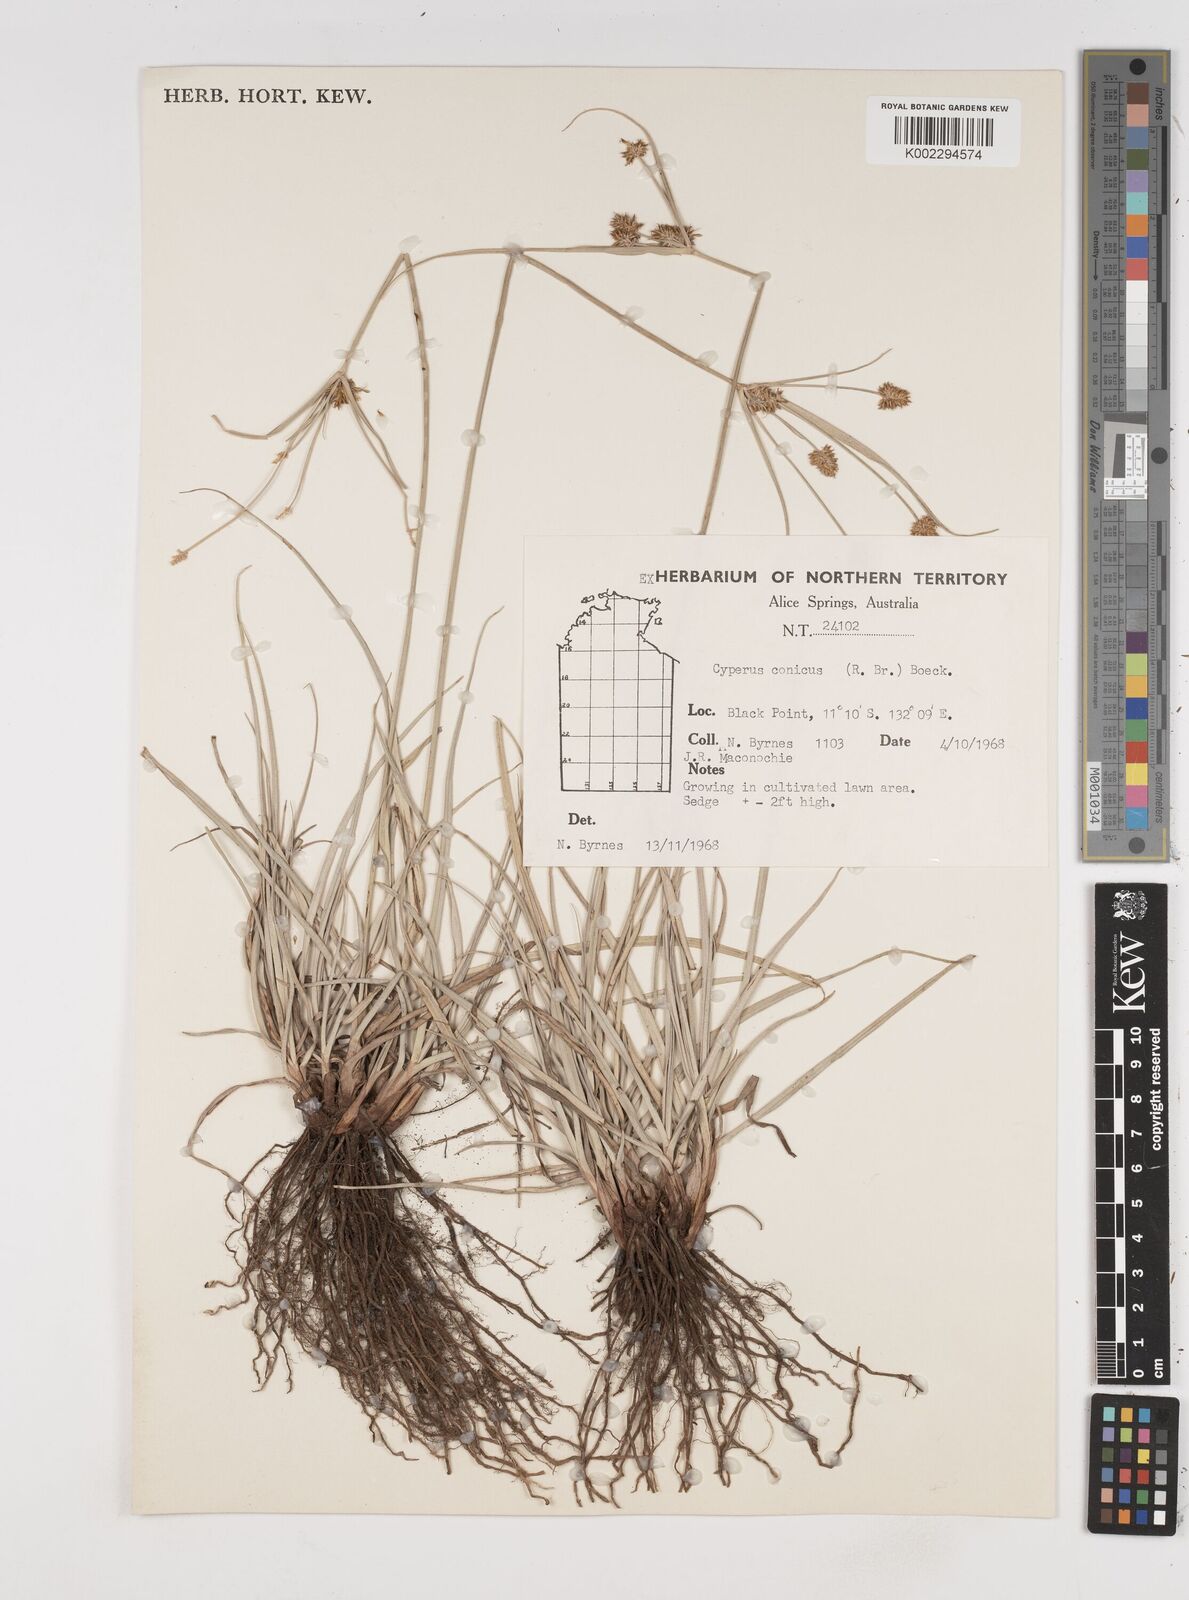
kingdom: Plantae
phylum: Tracheophyta
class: Liliopsida
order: Poales
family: Cyperaceae
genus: Cyperus
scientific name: Cyperus conicus
